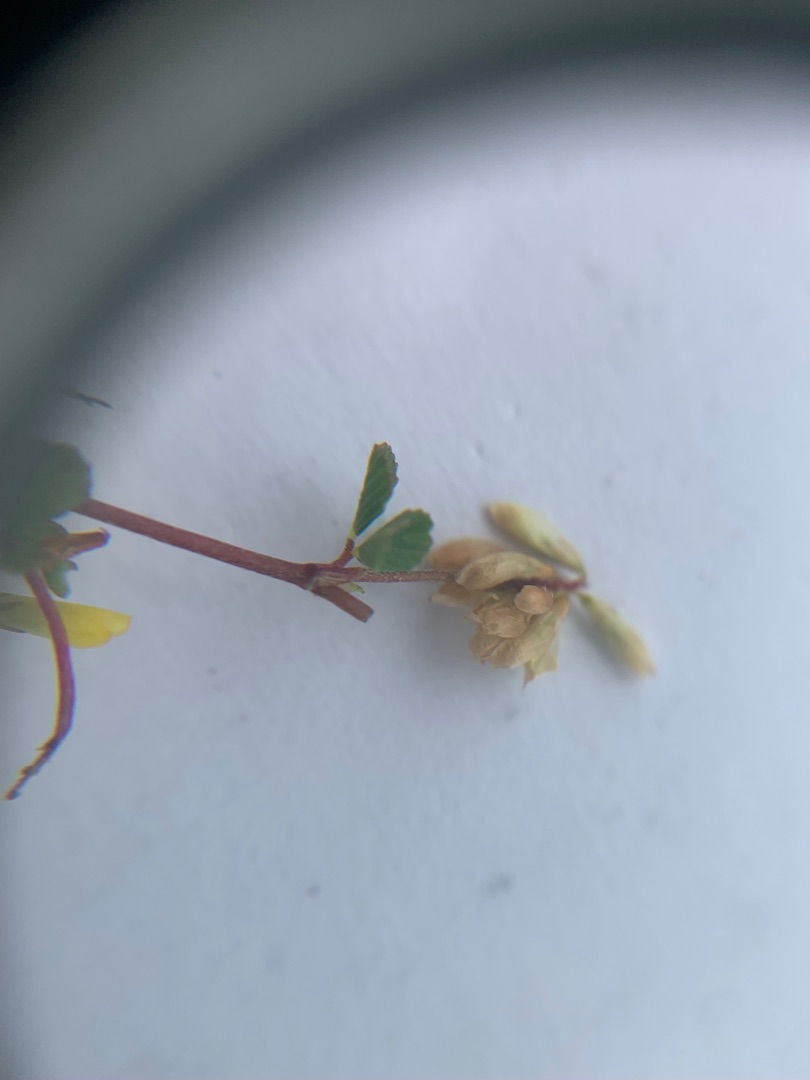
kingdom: Plantae
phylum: Tracheophyta
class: Magnoliopsida
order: Fabales
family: Fabaceae
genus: Trifolium
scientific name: Trifolium dubium
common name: Fin kløver
